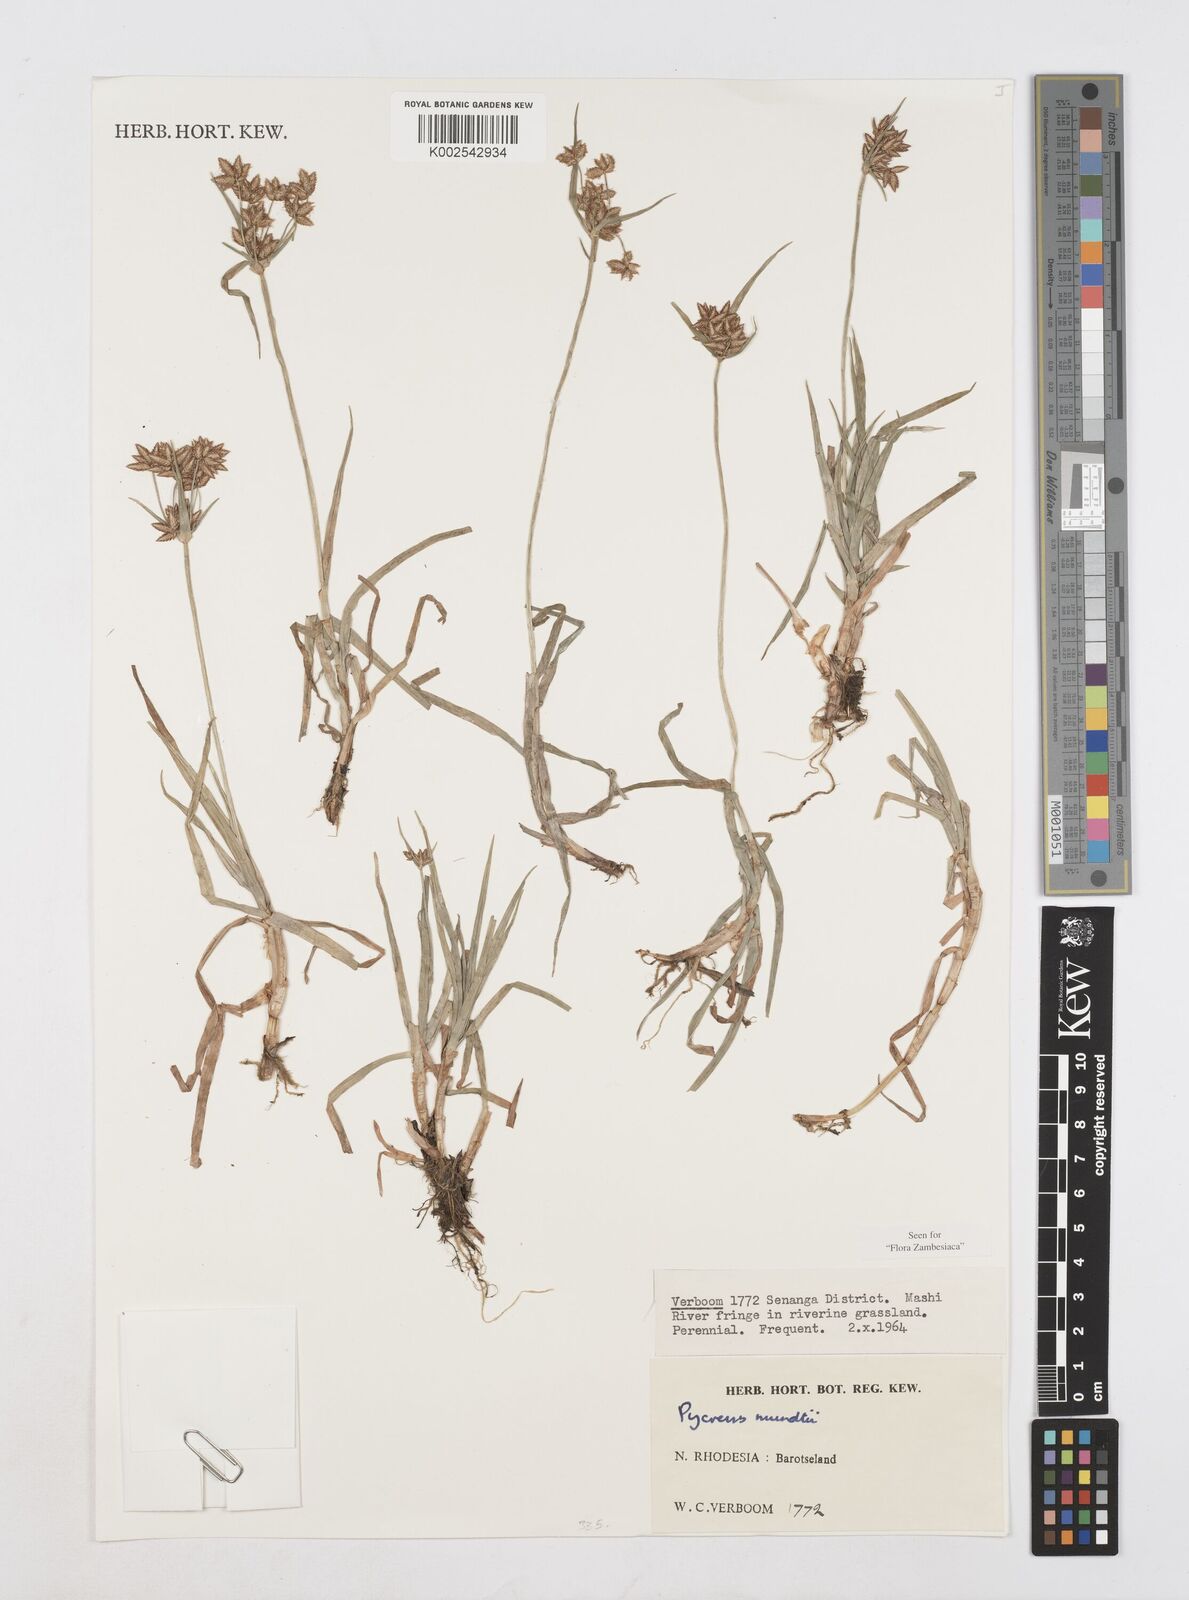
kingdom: Plantae
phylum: Tracheophyta
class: Liliopsida
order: Poales
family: Cyperaceae
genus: Cyperus
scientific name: Cyperus mundii
